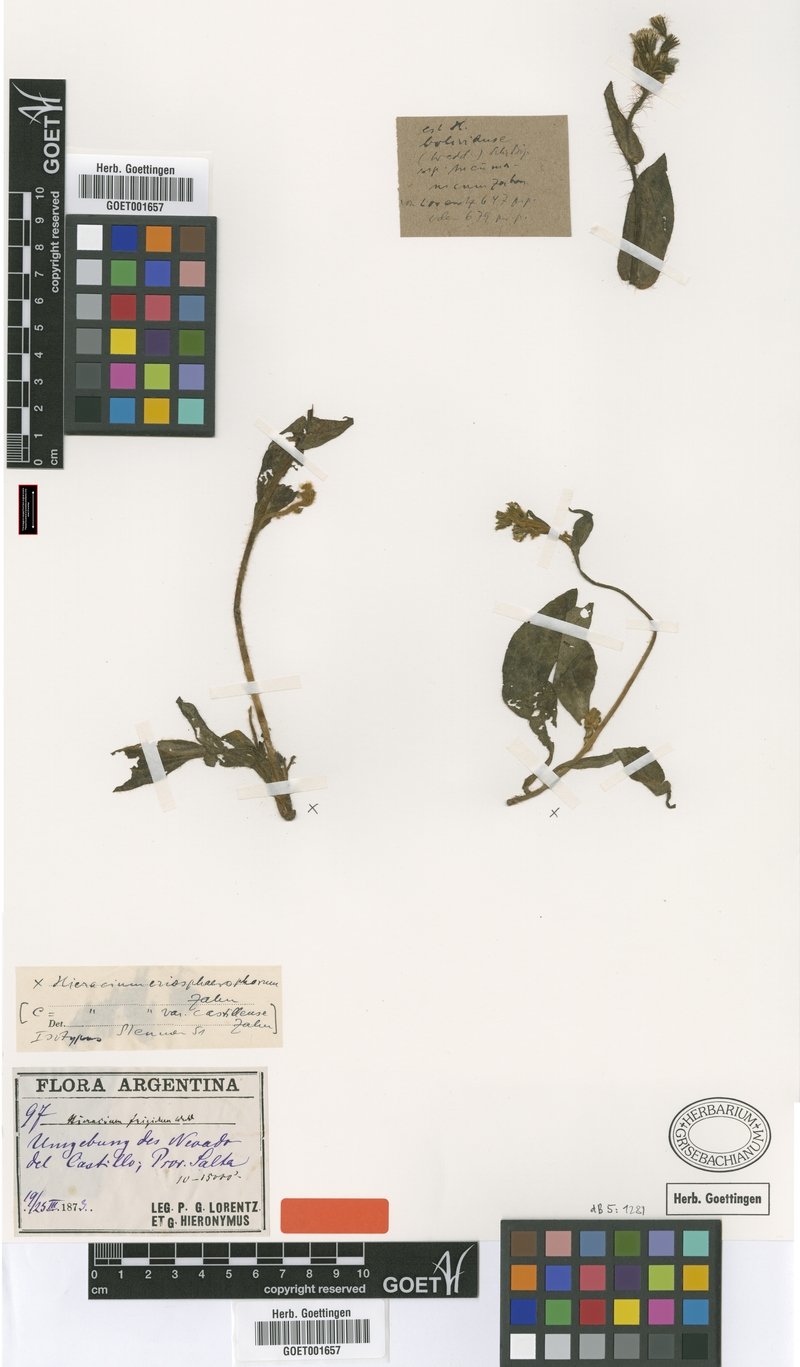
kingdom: Plantae
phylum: Tracheophyta
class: Magnoliopsida
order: Asterales
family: Asteraceae
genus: Hieracium
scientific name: Hieracium mandonii
